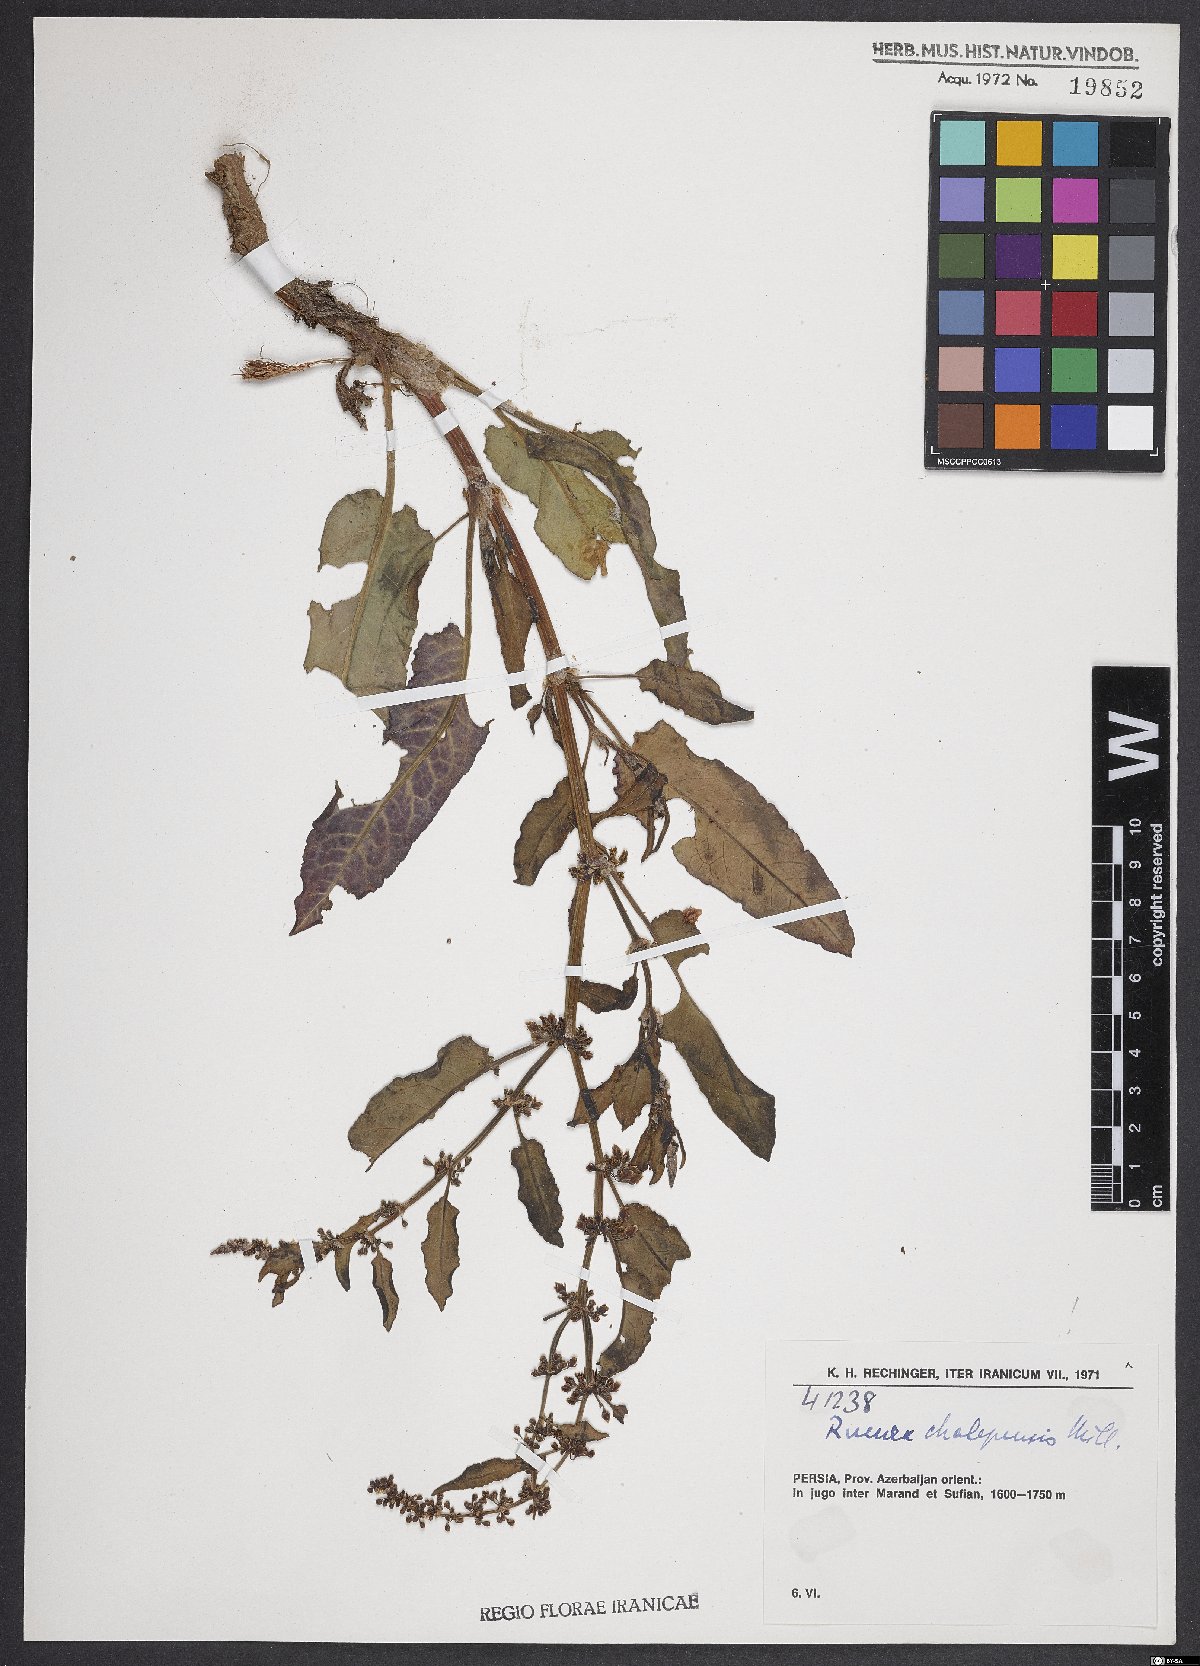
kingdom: Plantae
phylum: Tracheophyta
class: Magnoliopsida
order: Caryophyllales
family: Polygonaceae
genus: Rumex
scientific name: Rumex chalepensis
